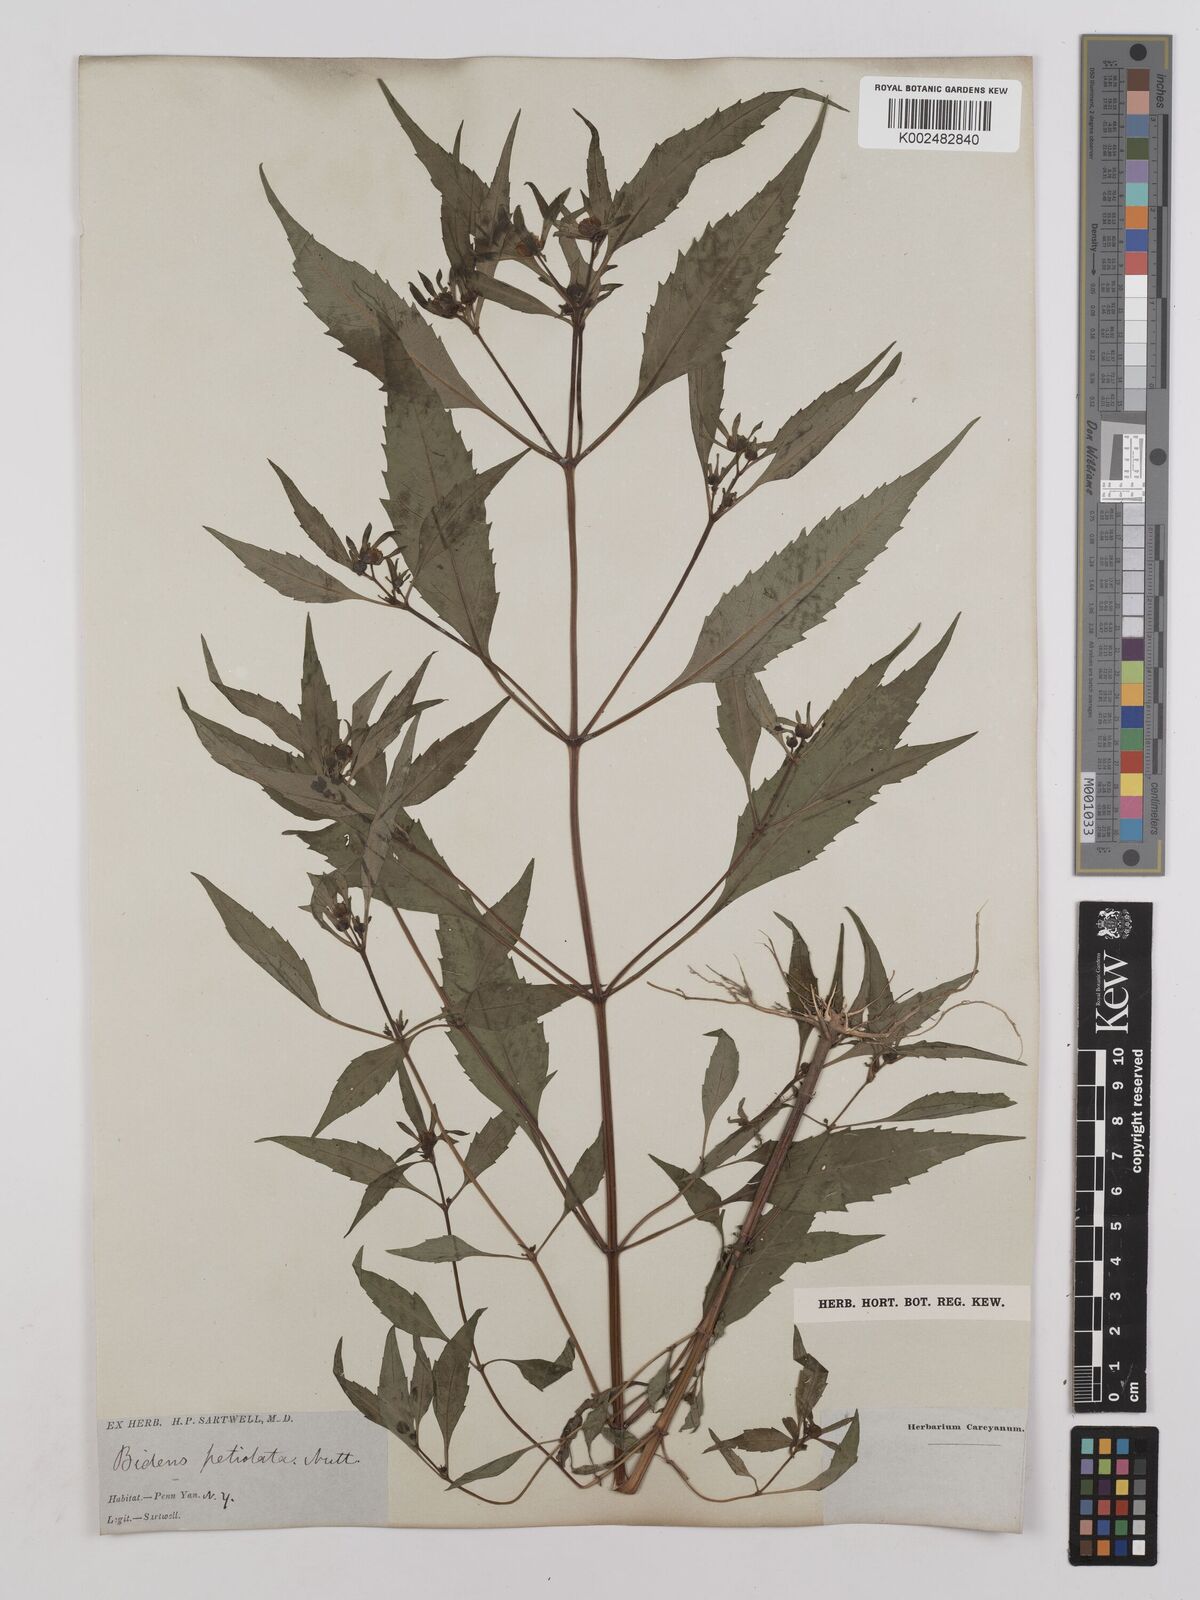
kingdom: Plantae
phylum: Tracheophyta
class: Magnoliopsida
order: Asterales
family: Asteraceae
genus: Bidens
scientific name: Bidens connata
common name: London bur-marigold
